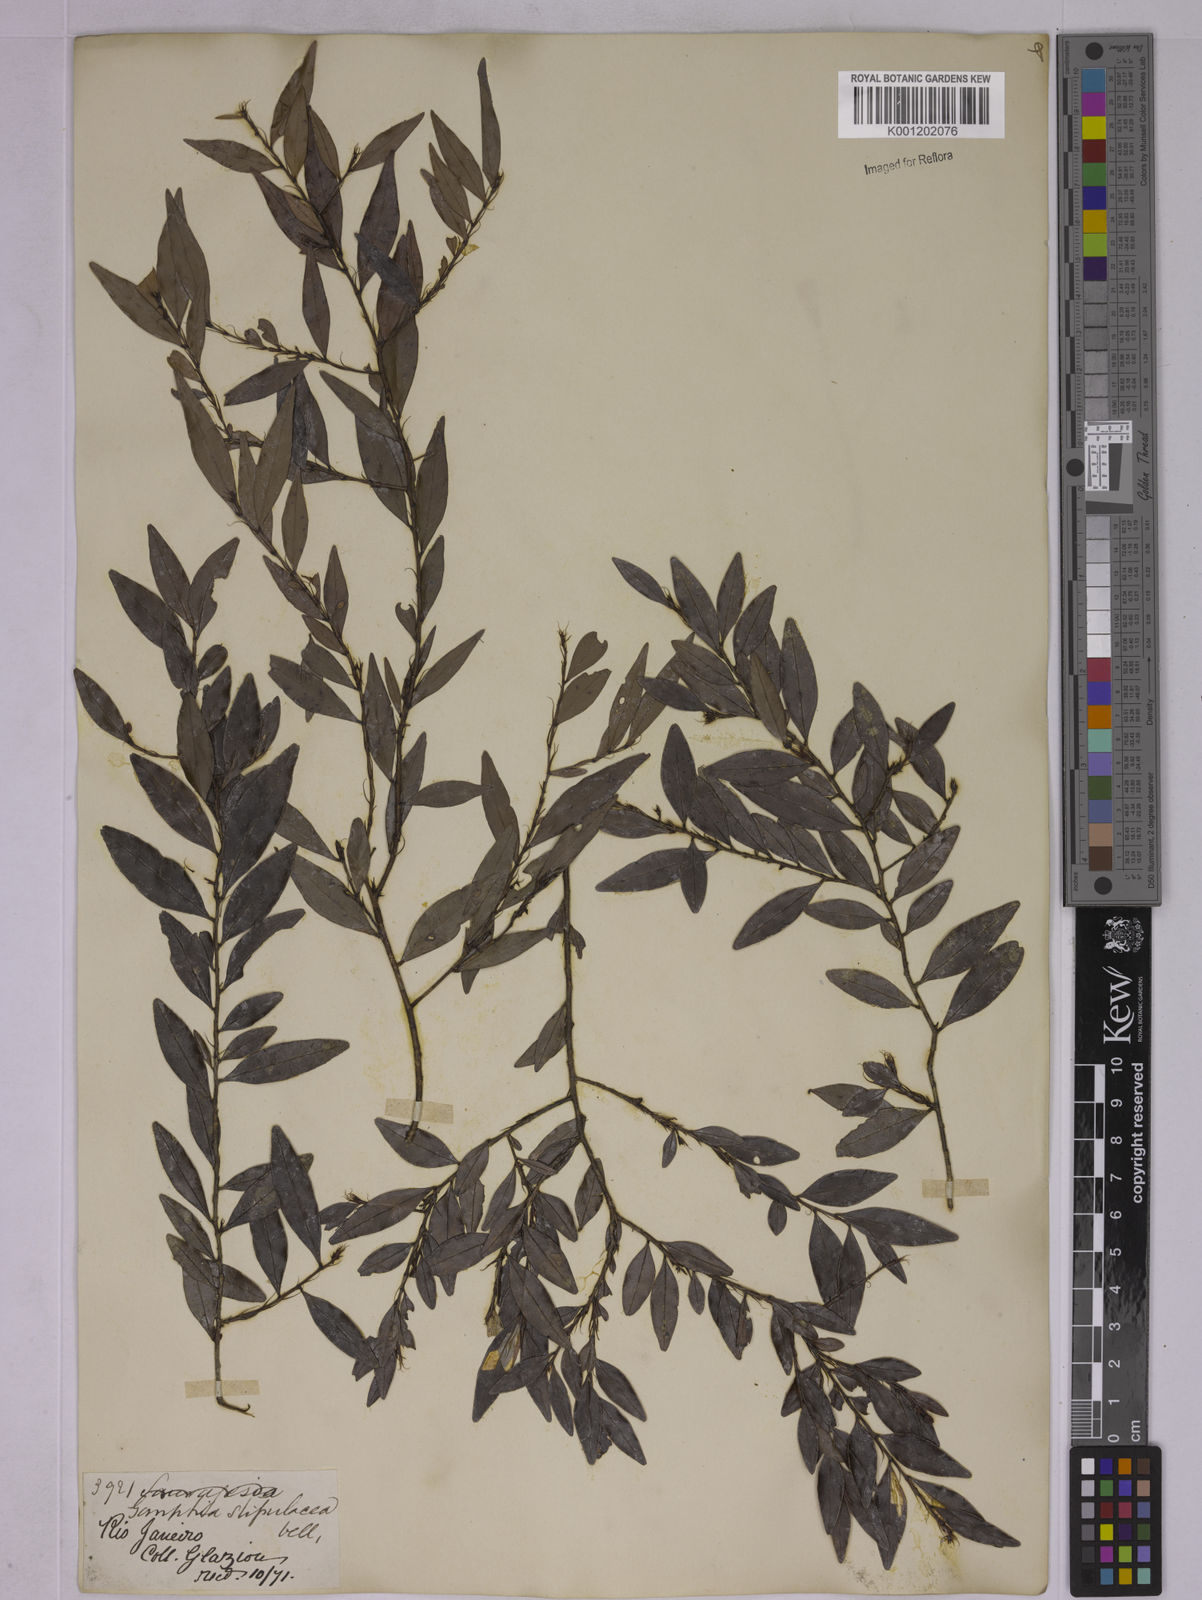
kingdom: Plantae
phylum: Tracheophyta
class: Magnoliopsida
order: Malpighiales
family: Ochnaceae
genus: Ouratea
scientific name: Ouratea stipulata
